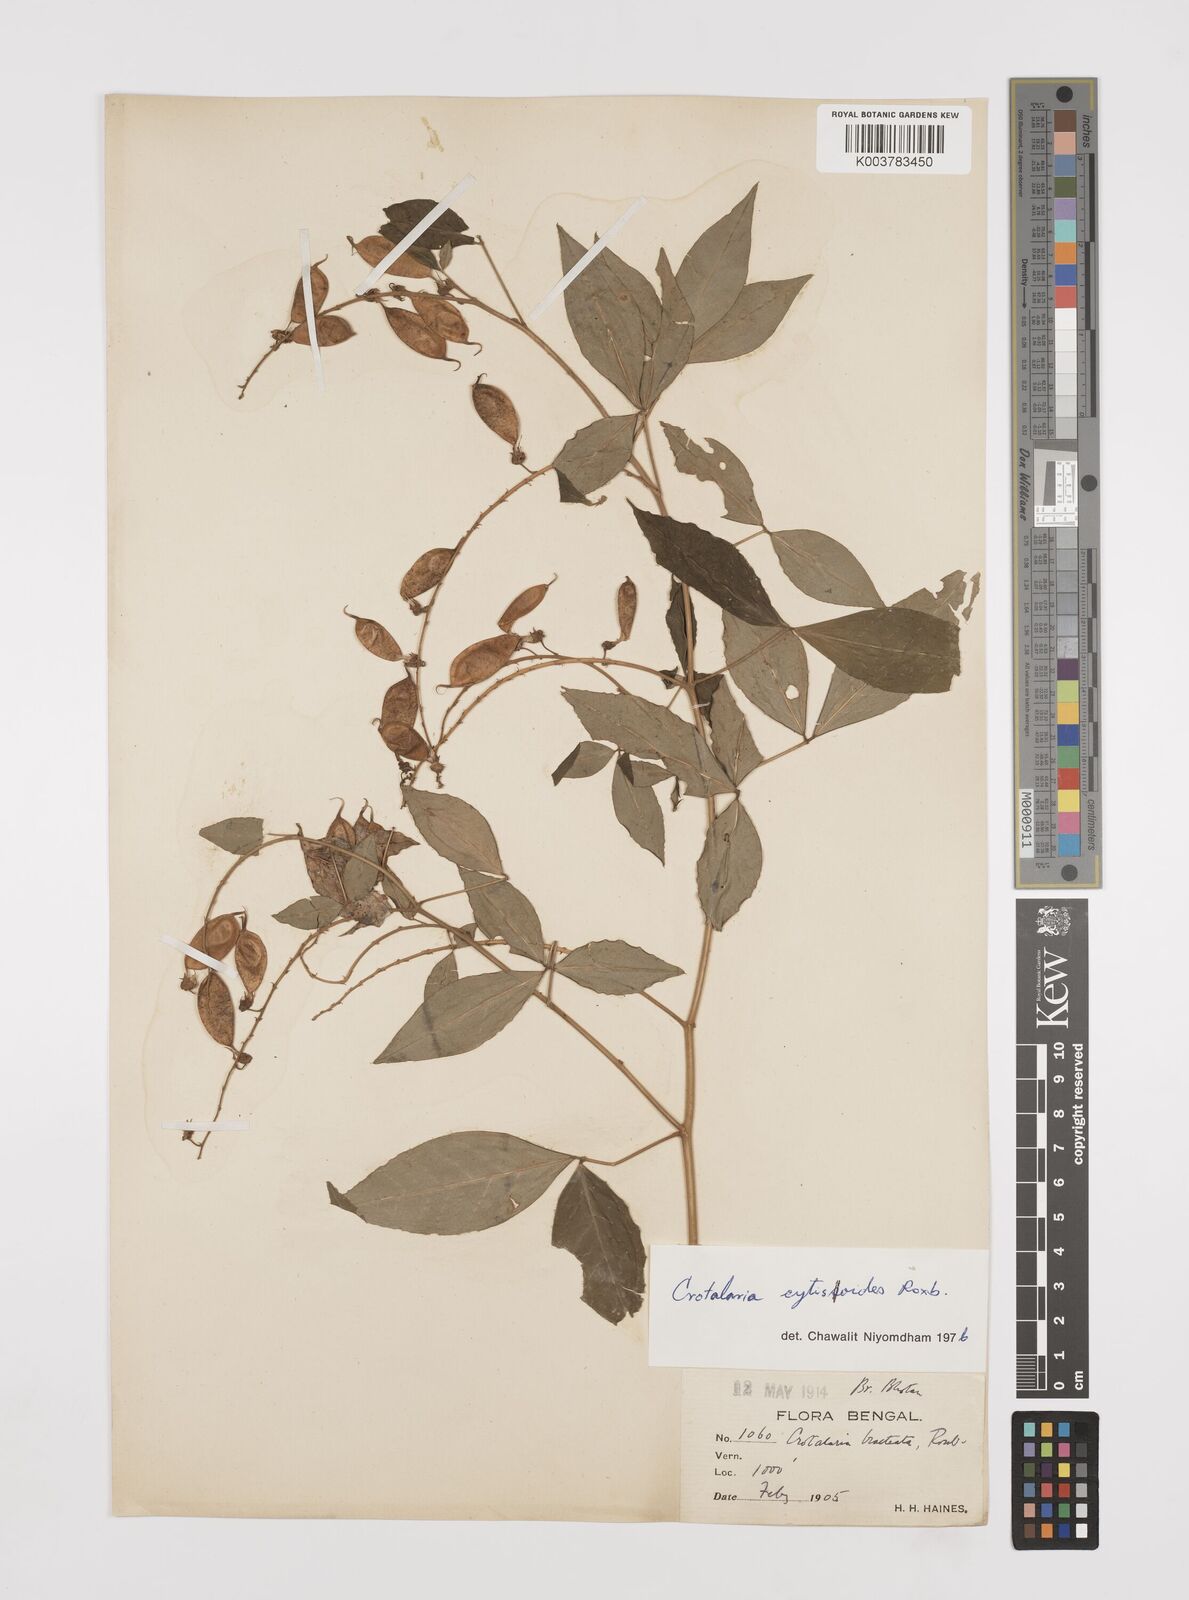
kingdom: Plantae
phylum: Tracheophyta
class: Magnoliopsida
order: Fabales
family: Fabaceae
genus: Crotalaria
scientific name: Crotalaria cytisoides
